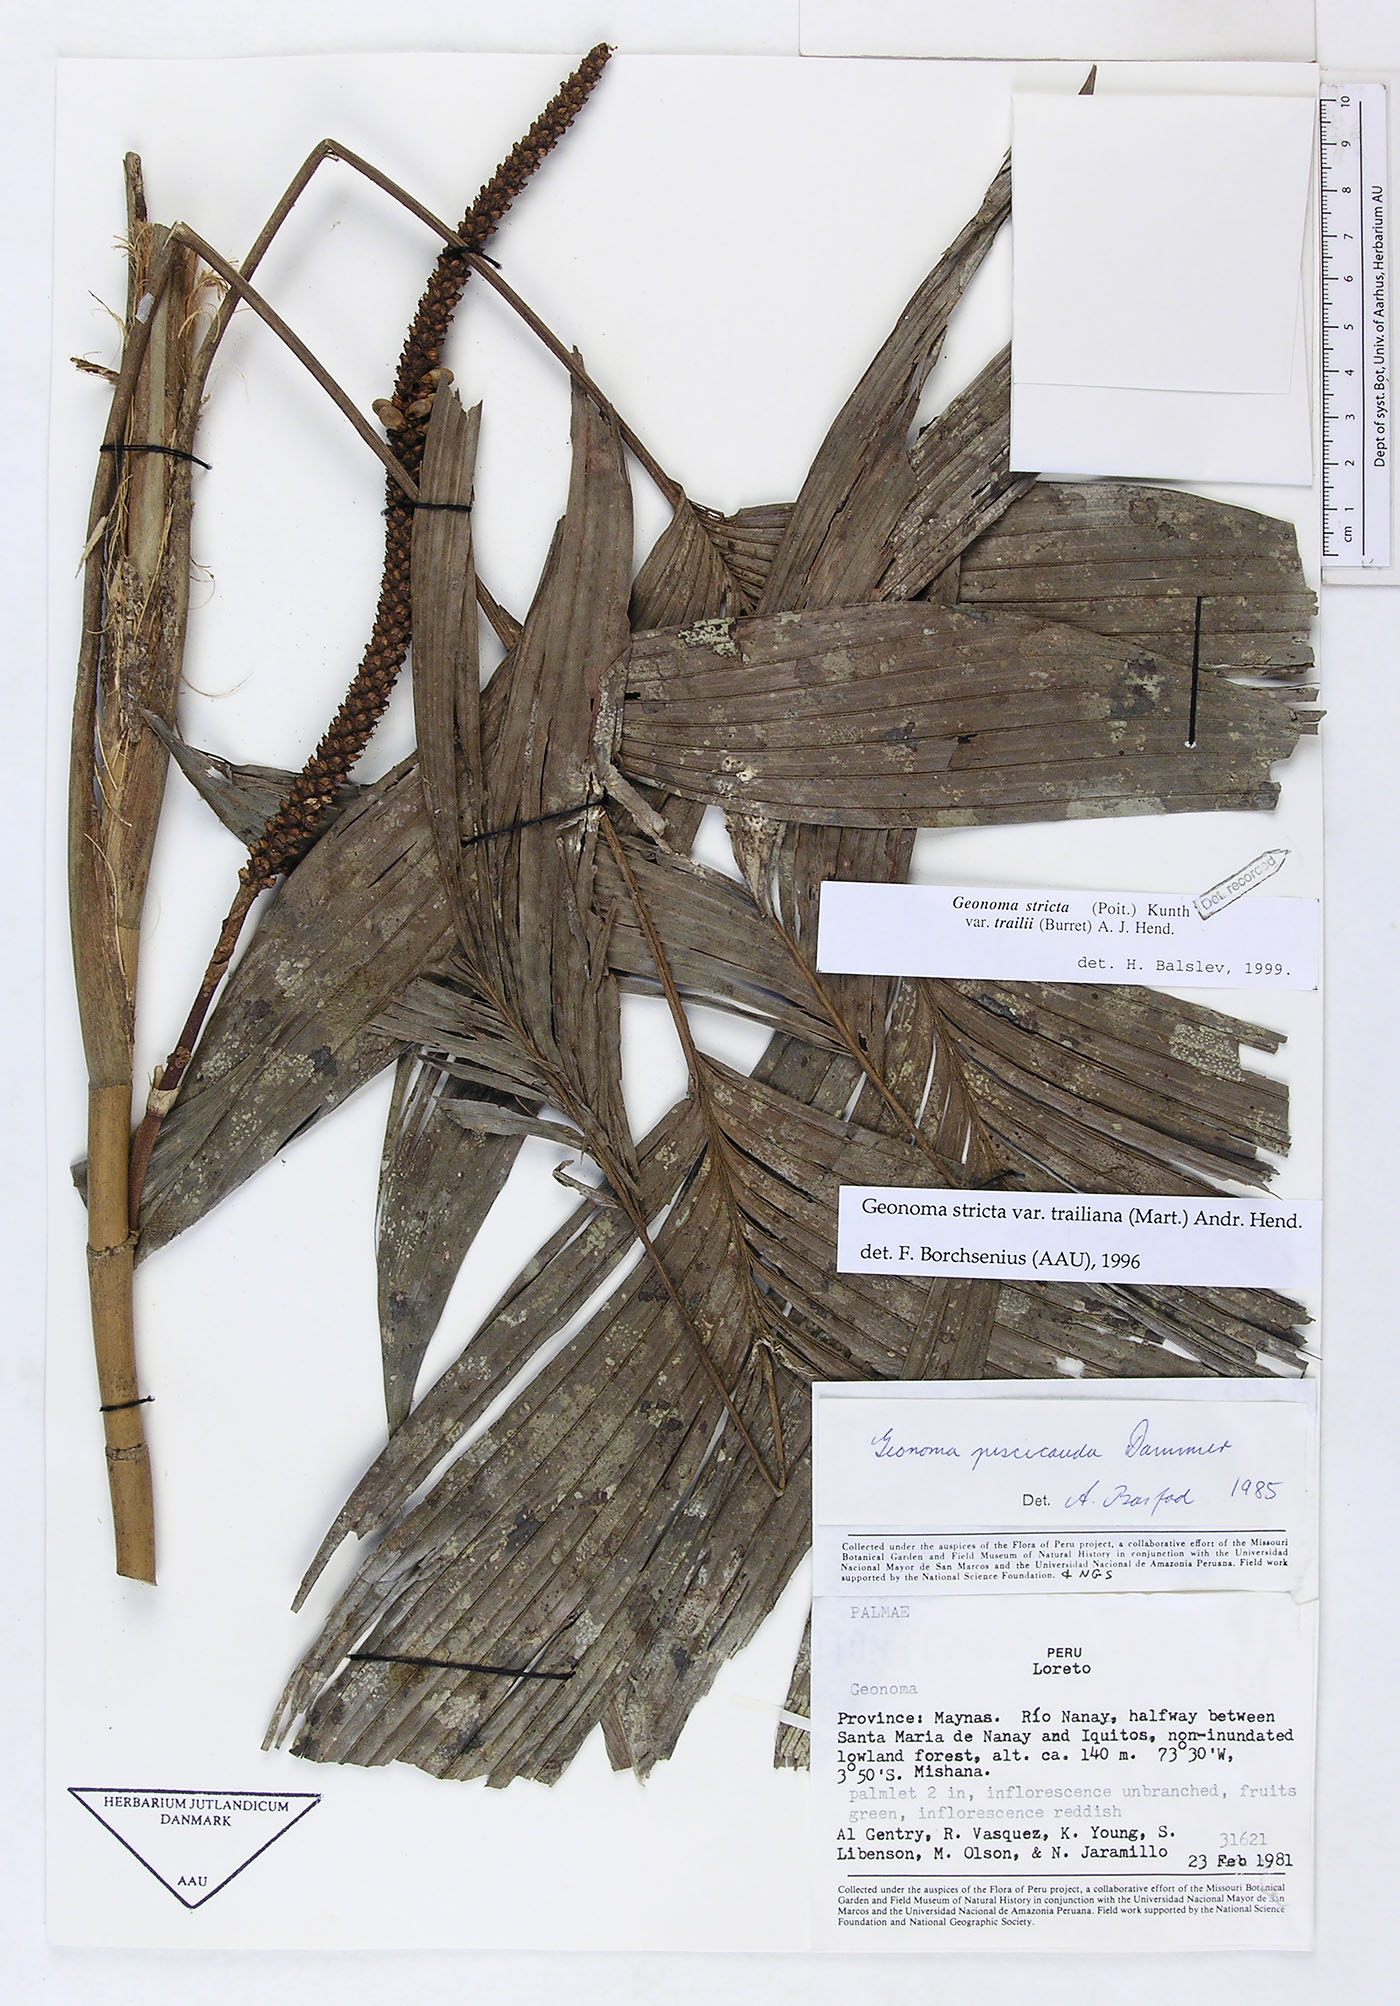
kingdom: Plantae
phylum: Tracheophyta
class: Liliopsida
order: Arecales
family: Arecaceae
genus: Geonoma
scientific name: Geonoma stricta
